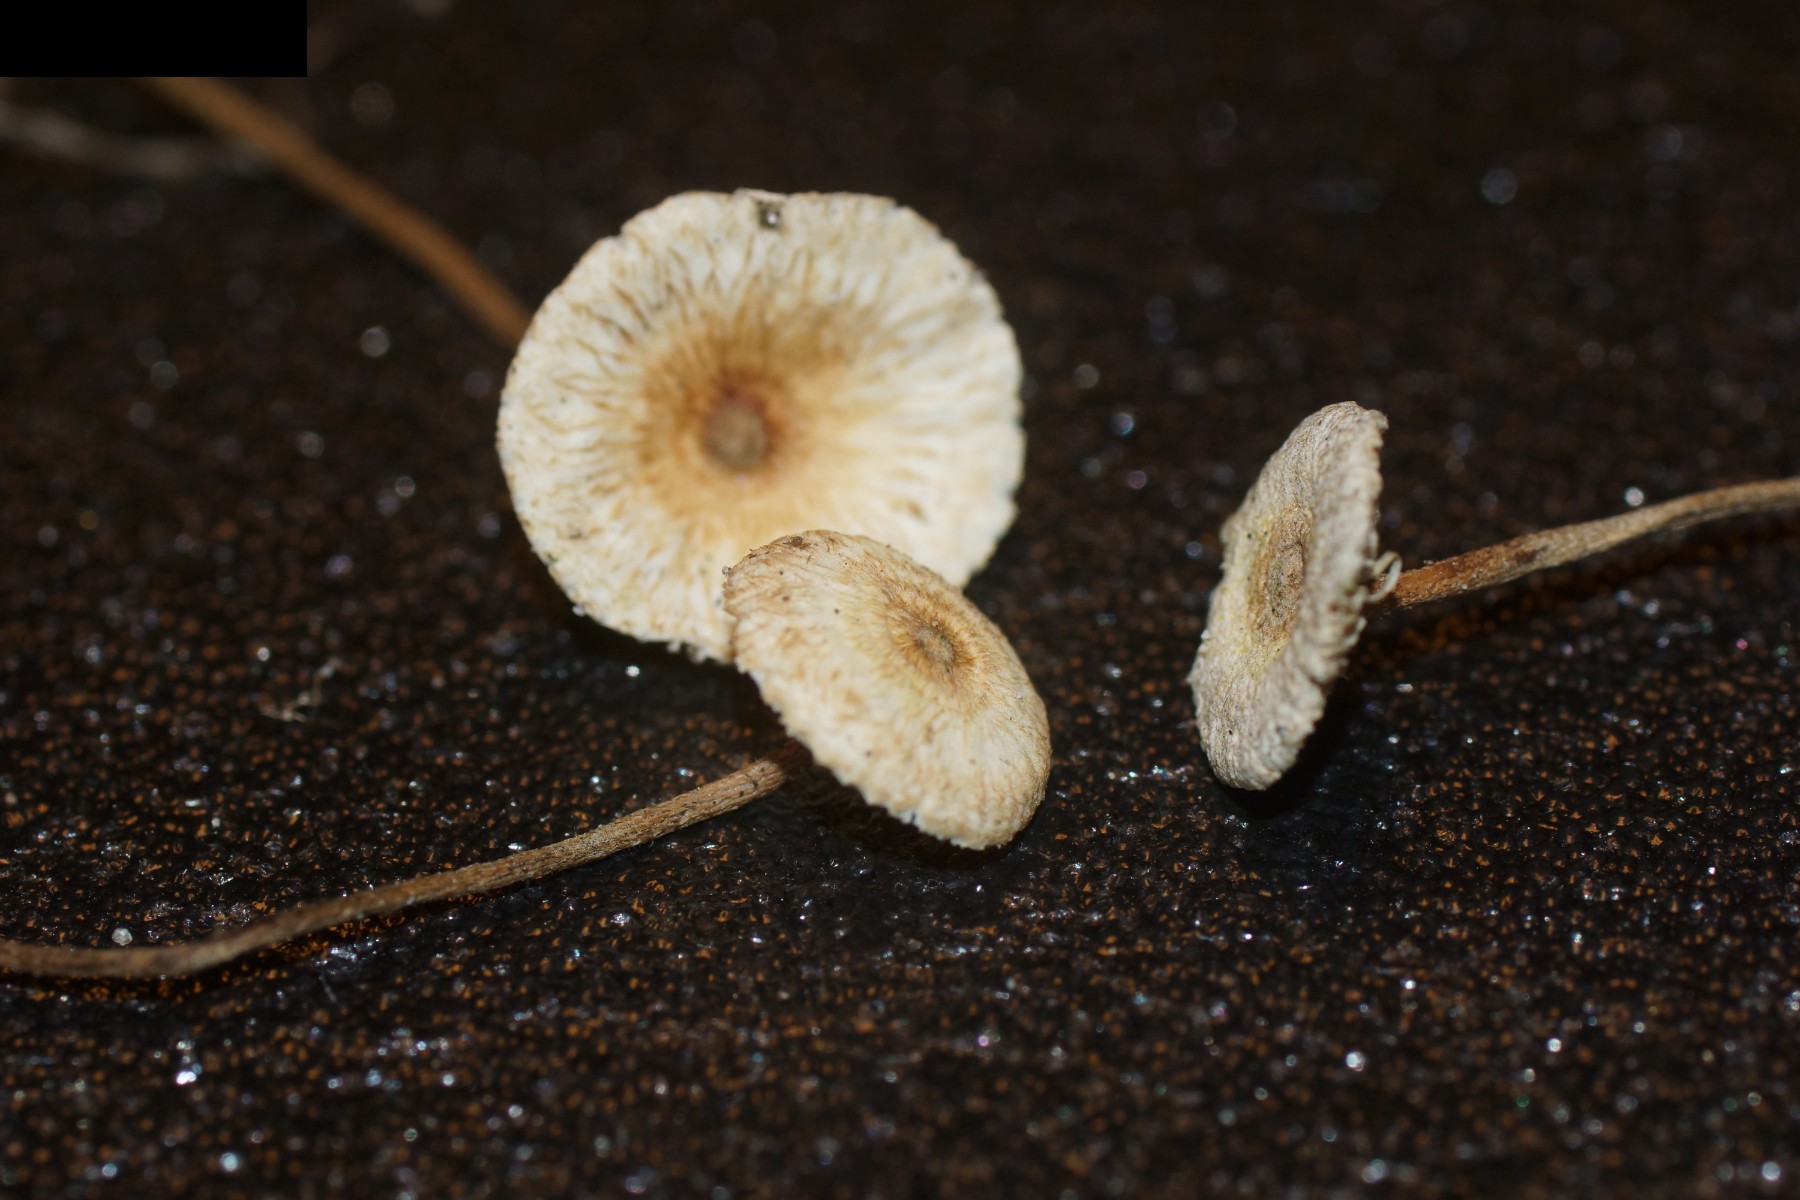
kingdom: Fungi
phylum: Basidiomycota
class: Agaricomycetes
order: Agaricales
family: Marasmiaceae
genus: Crinipellis
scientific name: Crinipellis scabella
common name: børstefod
